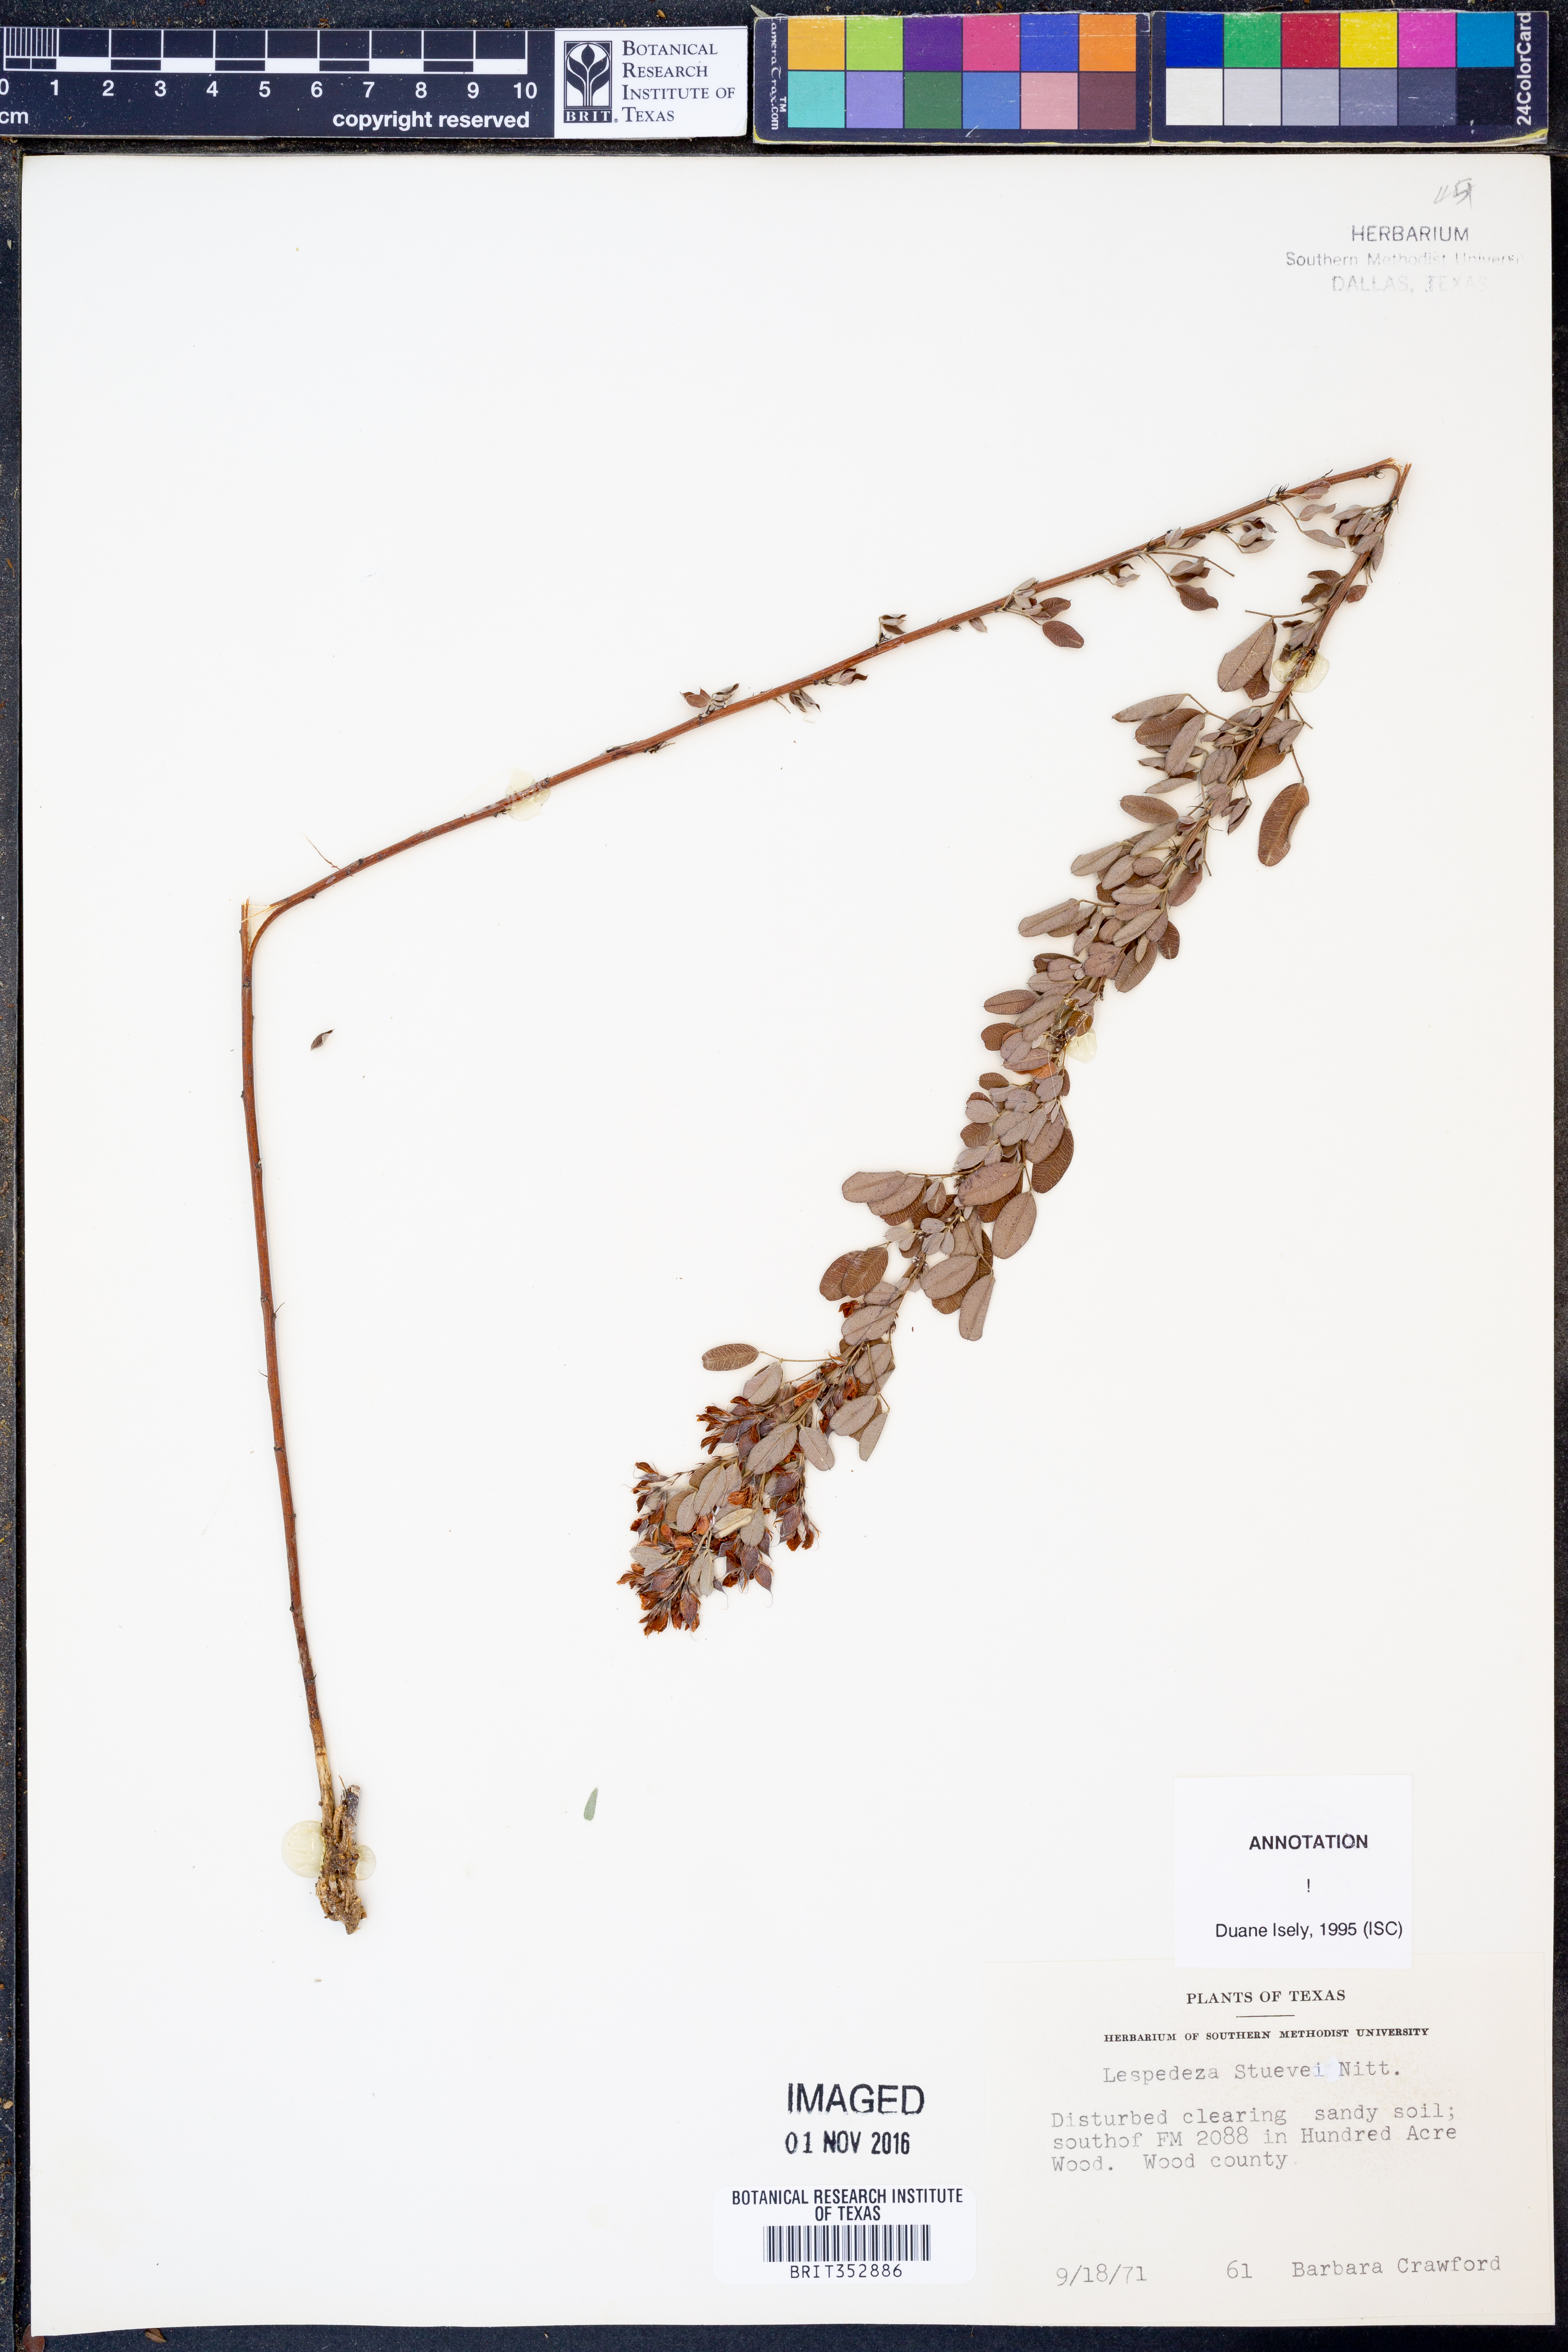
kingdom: Plantae
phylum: Tracheophyta
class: Magnoliopsida
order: Fabales
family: Fabaceae
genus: Lespedeza
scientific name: Lespedeza stuevei
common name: Tall bush-clover
